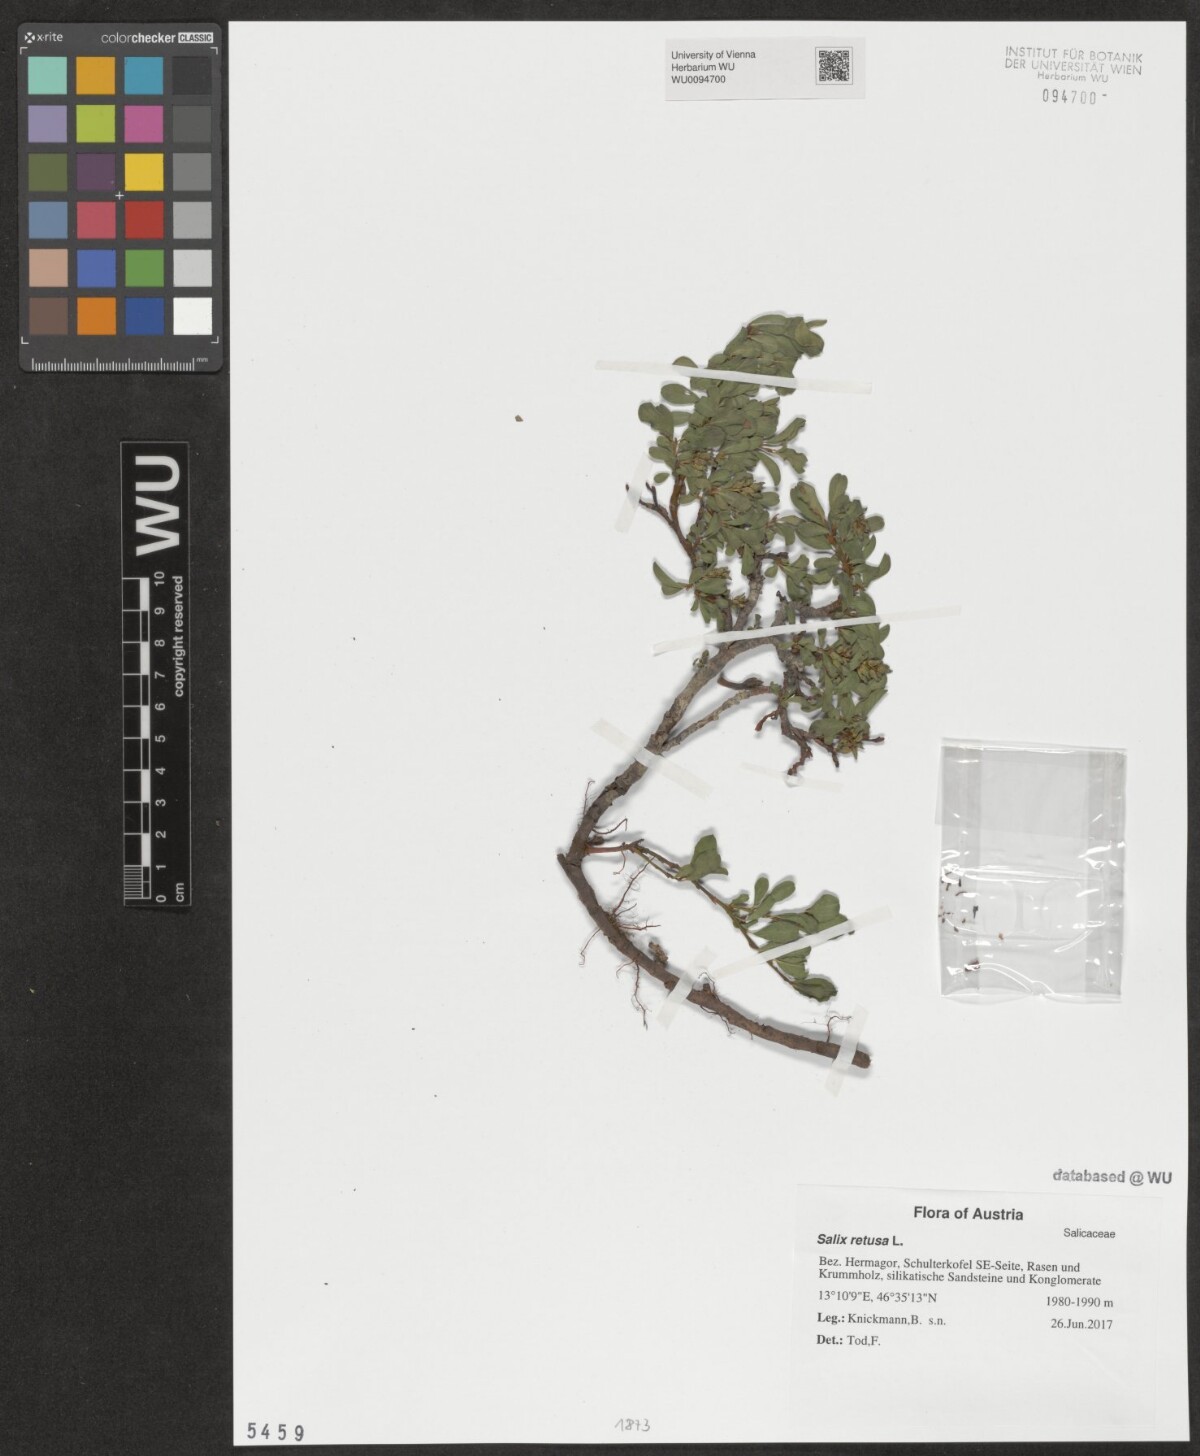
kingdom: Plantae
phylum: Tracheophyta
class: Magnoliopsida
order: Malpighiales
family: Salicaceae
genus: Salix
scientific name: Salix retusa
